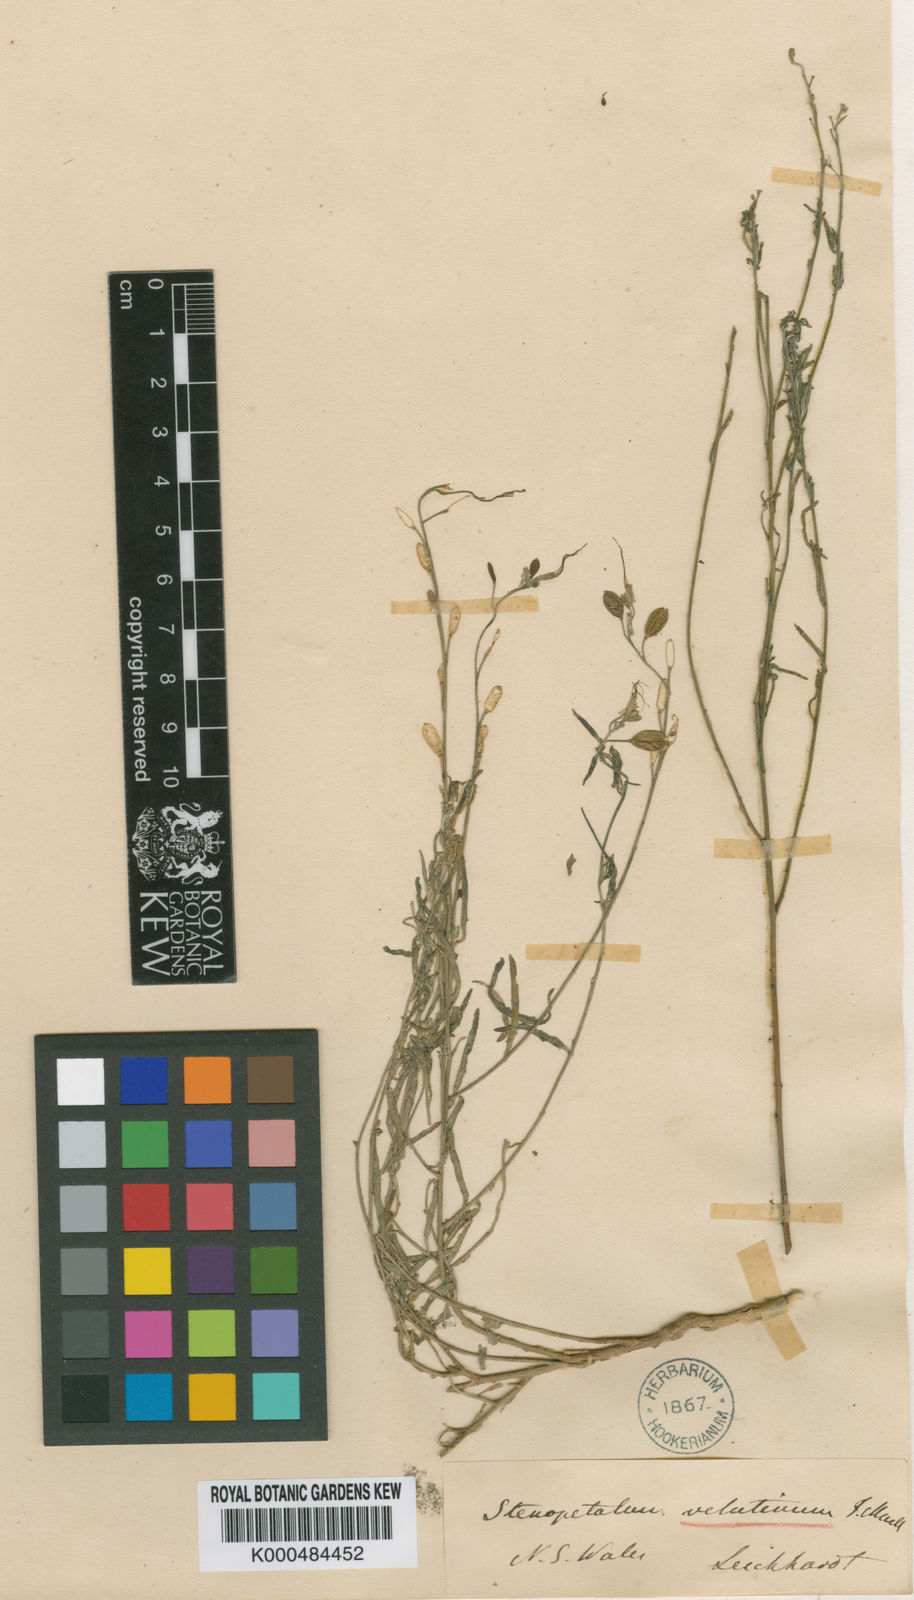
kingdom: Plantae
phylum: Tracheophyta
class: Magnoliopsida
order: Brassicales
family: Brassicaceae
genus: Stenopetalum
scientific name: Stenopetalum velutinum
